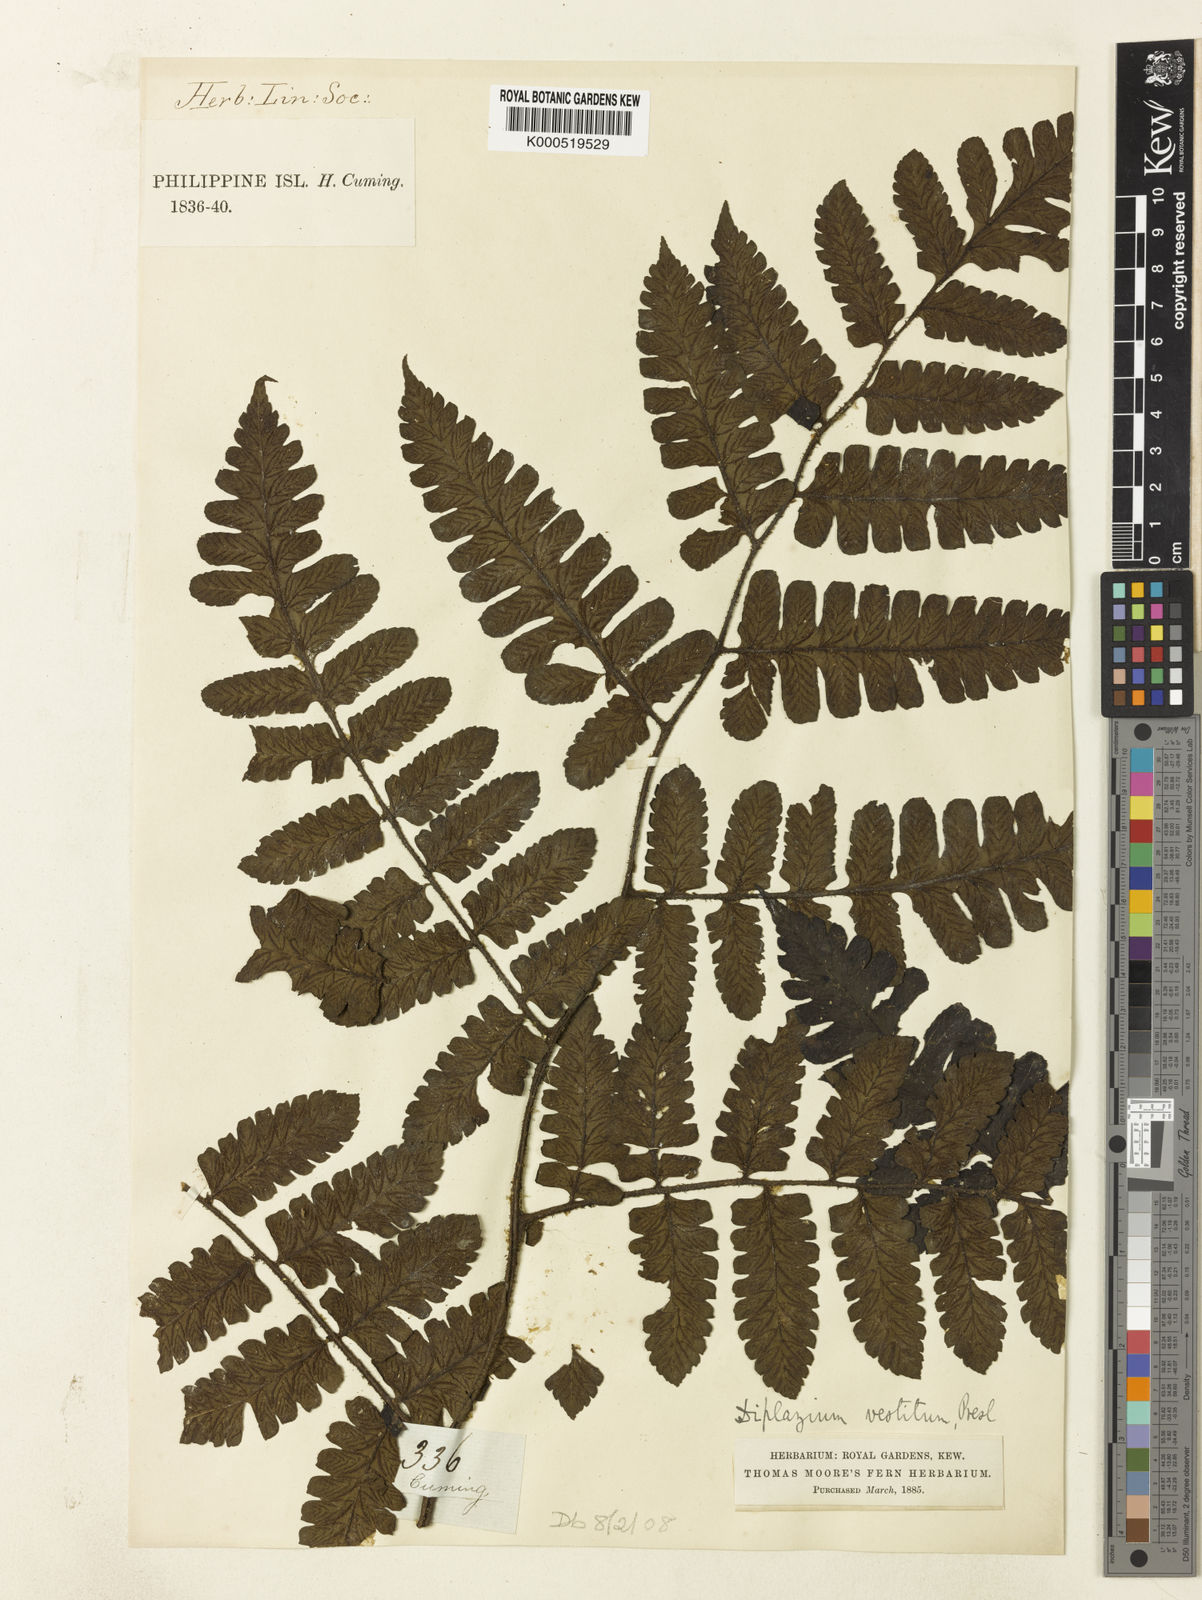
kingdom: Plantae
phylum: Tracheophyta
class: Polypodiopsida
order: Polypodiales
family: Athyriaceae
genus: Diplazium
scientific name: Diplazium vestitum
